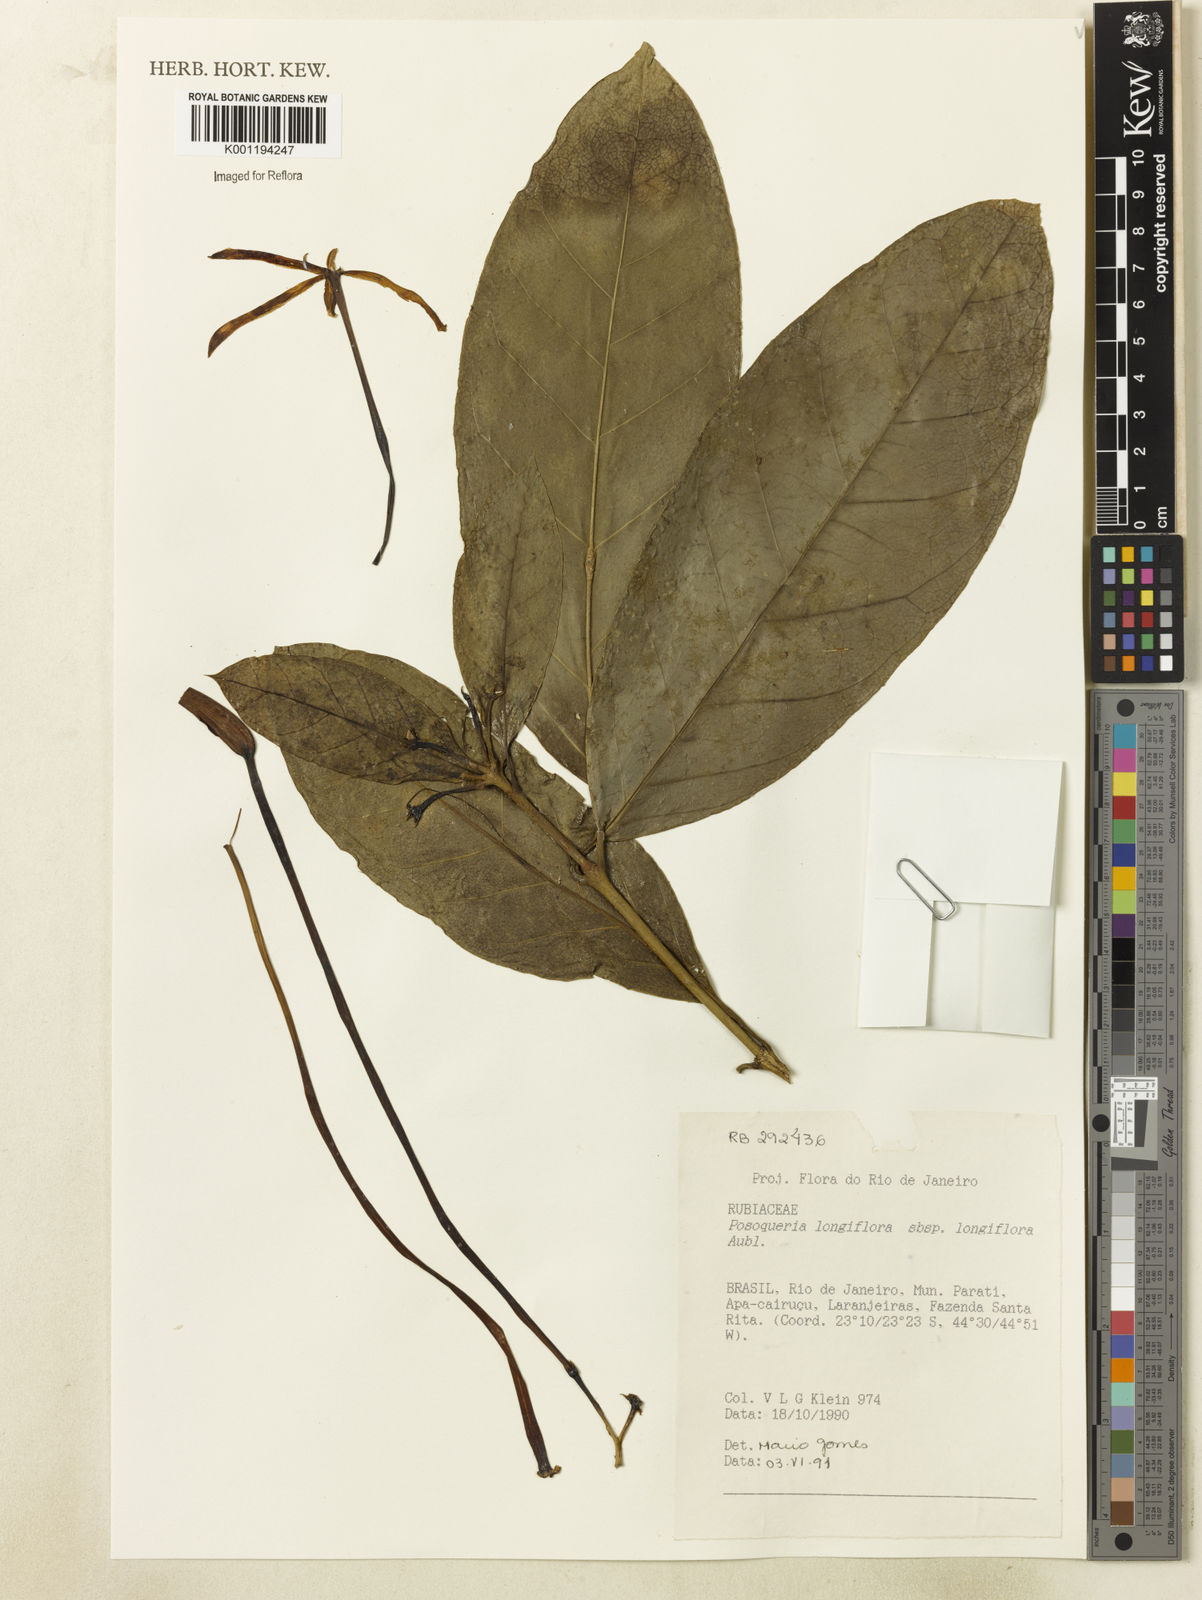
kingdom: Plantae
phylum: Tracheophyta
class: Magnoliopsida
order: Gentianales
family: Rubiaceae
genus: Posoqueria
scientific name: Posoqueria longiflora
